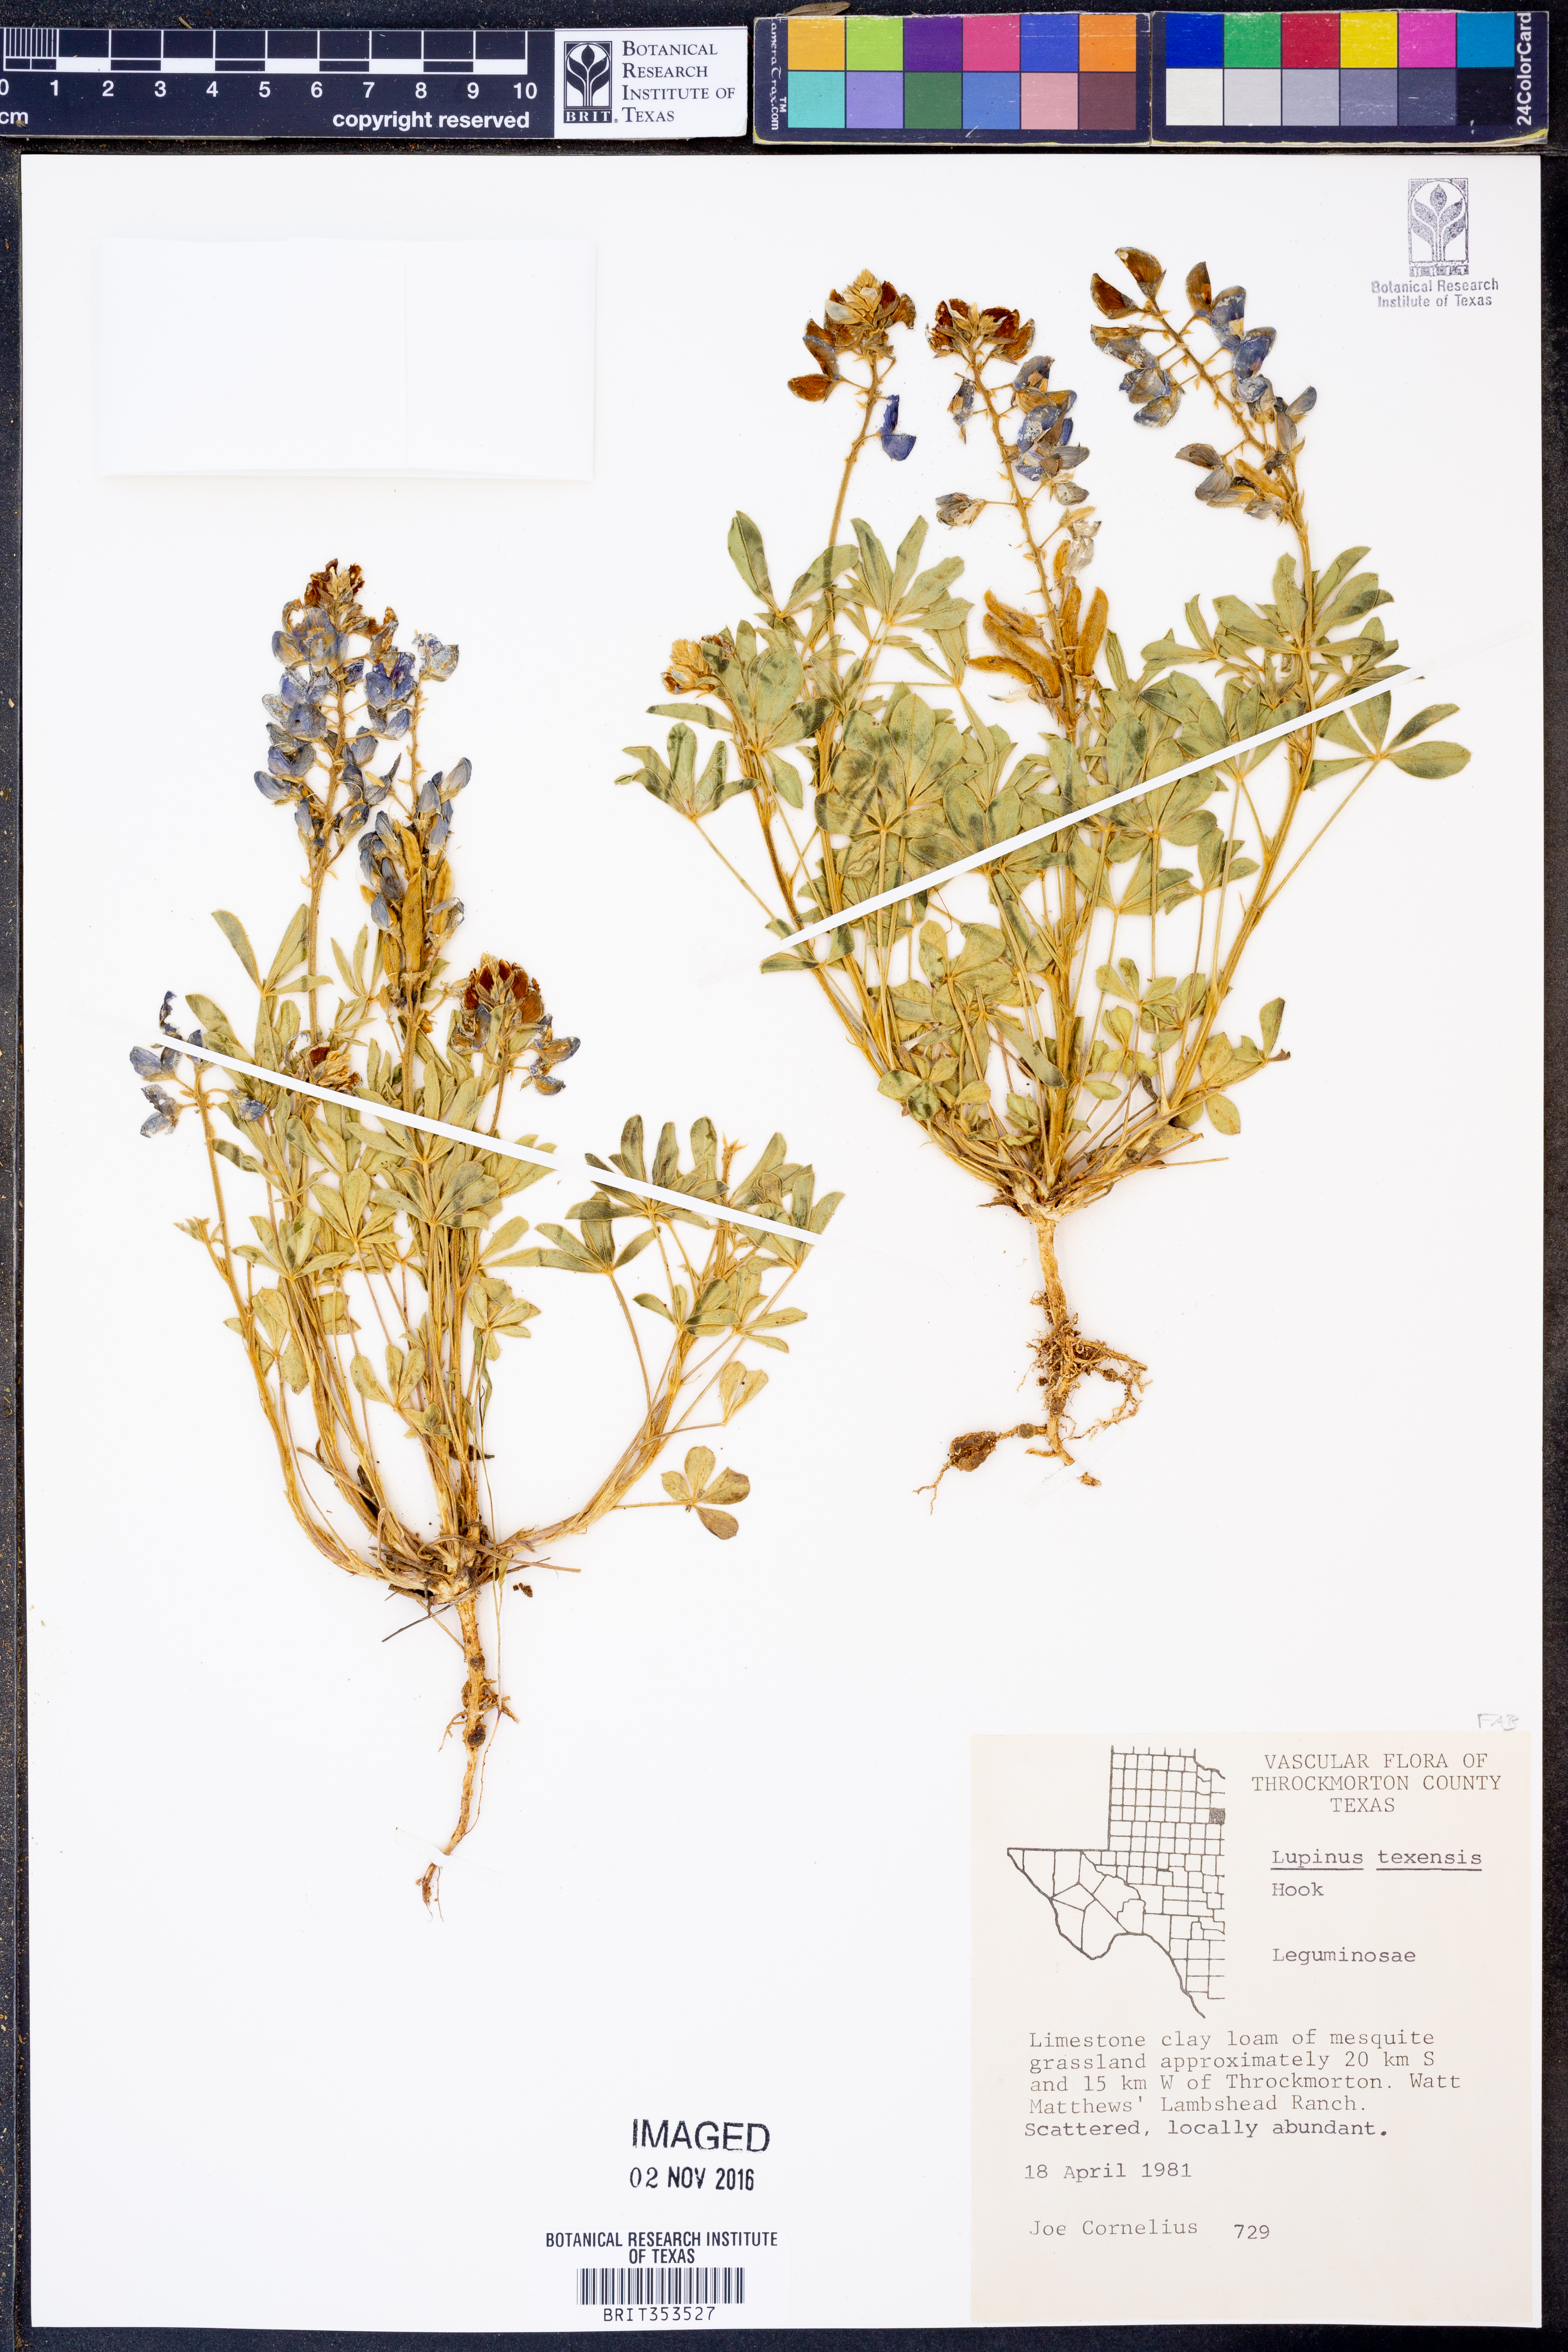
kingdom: Plantae
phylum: Tracheophyta
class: Magnoliopsida
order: Fabales
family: Fabaceae
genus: Lupinus
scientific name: Lupinus texensis
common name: Texas bluebonnet
